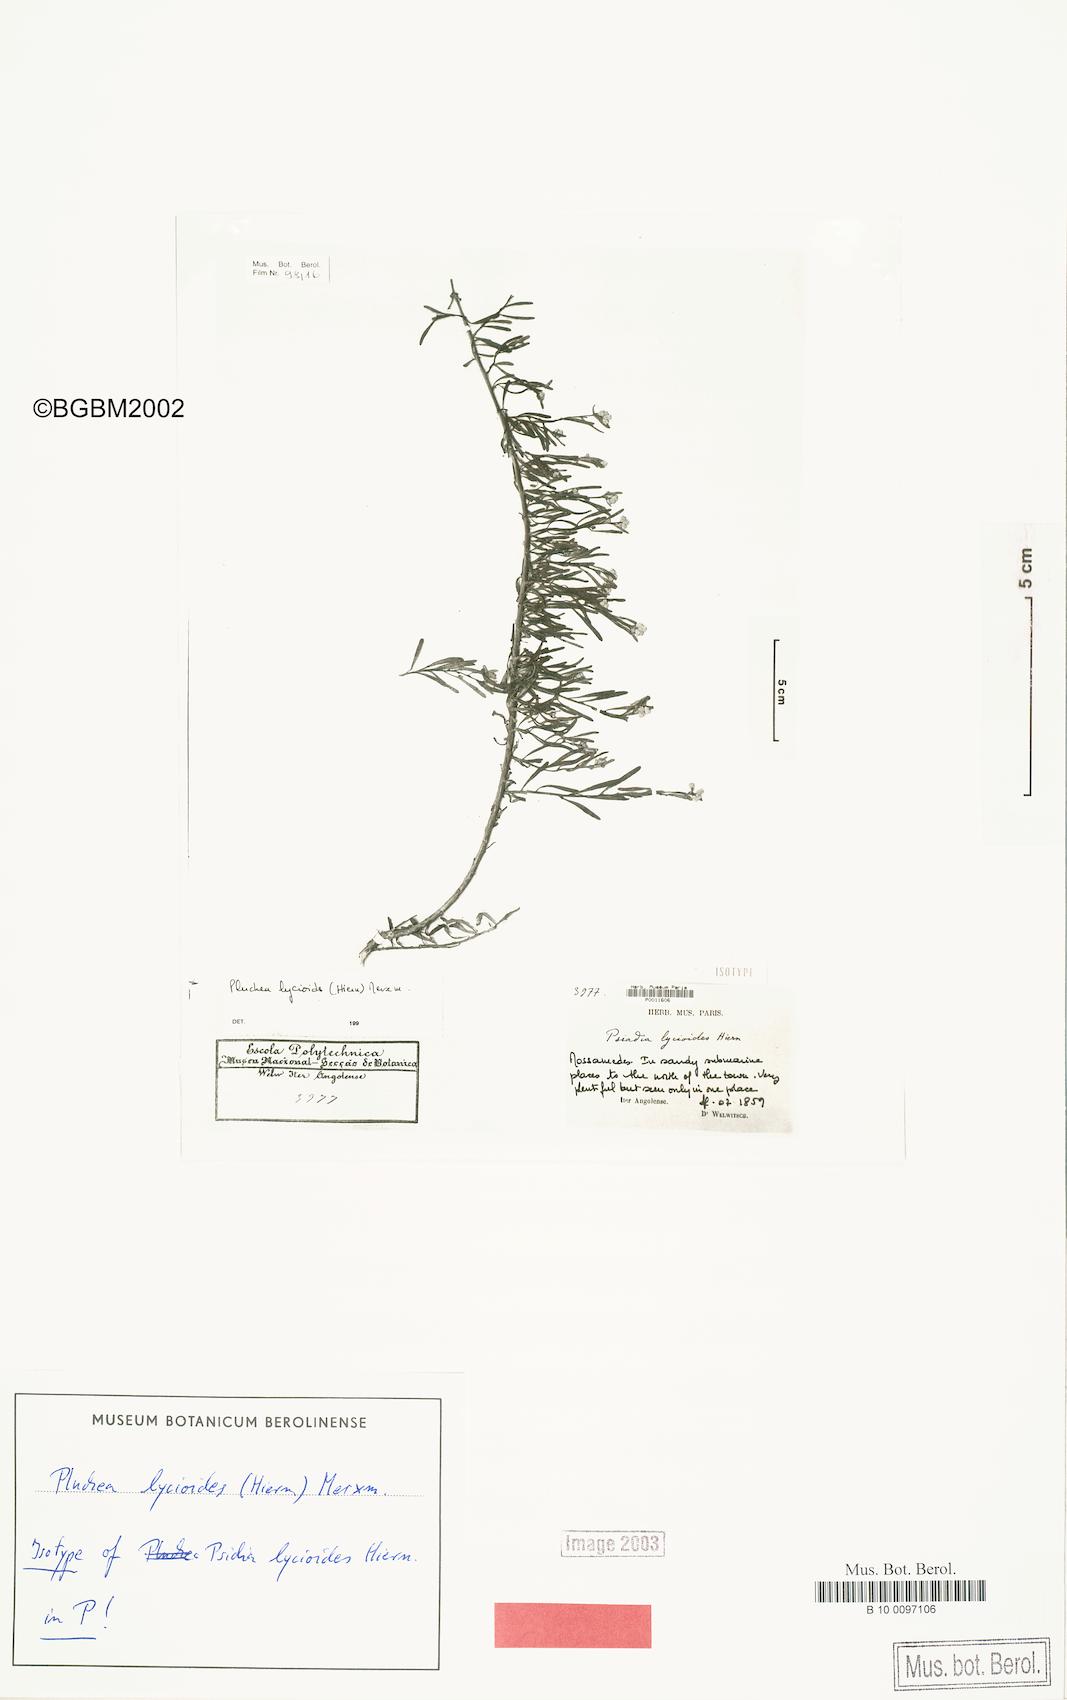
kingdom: Plantae
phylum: Tracheophyta
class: Magnoliopsida
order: Asterales
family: Asteraceae
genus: Pluchea
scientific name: Pluchea lycioides
